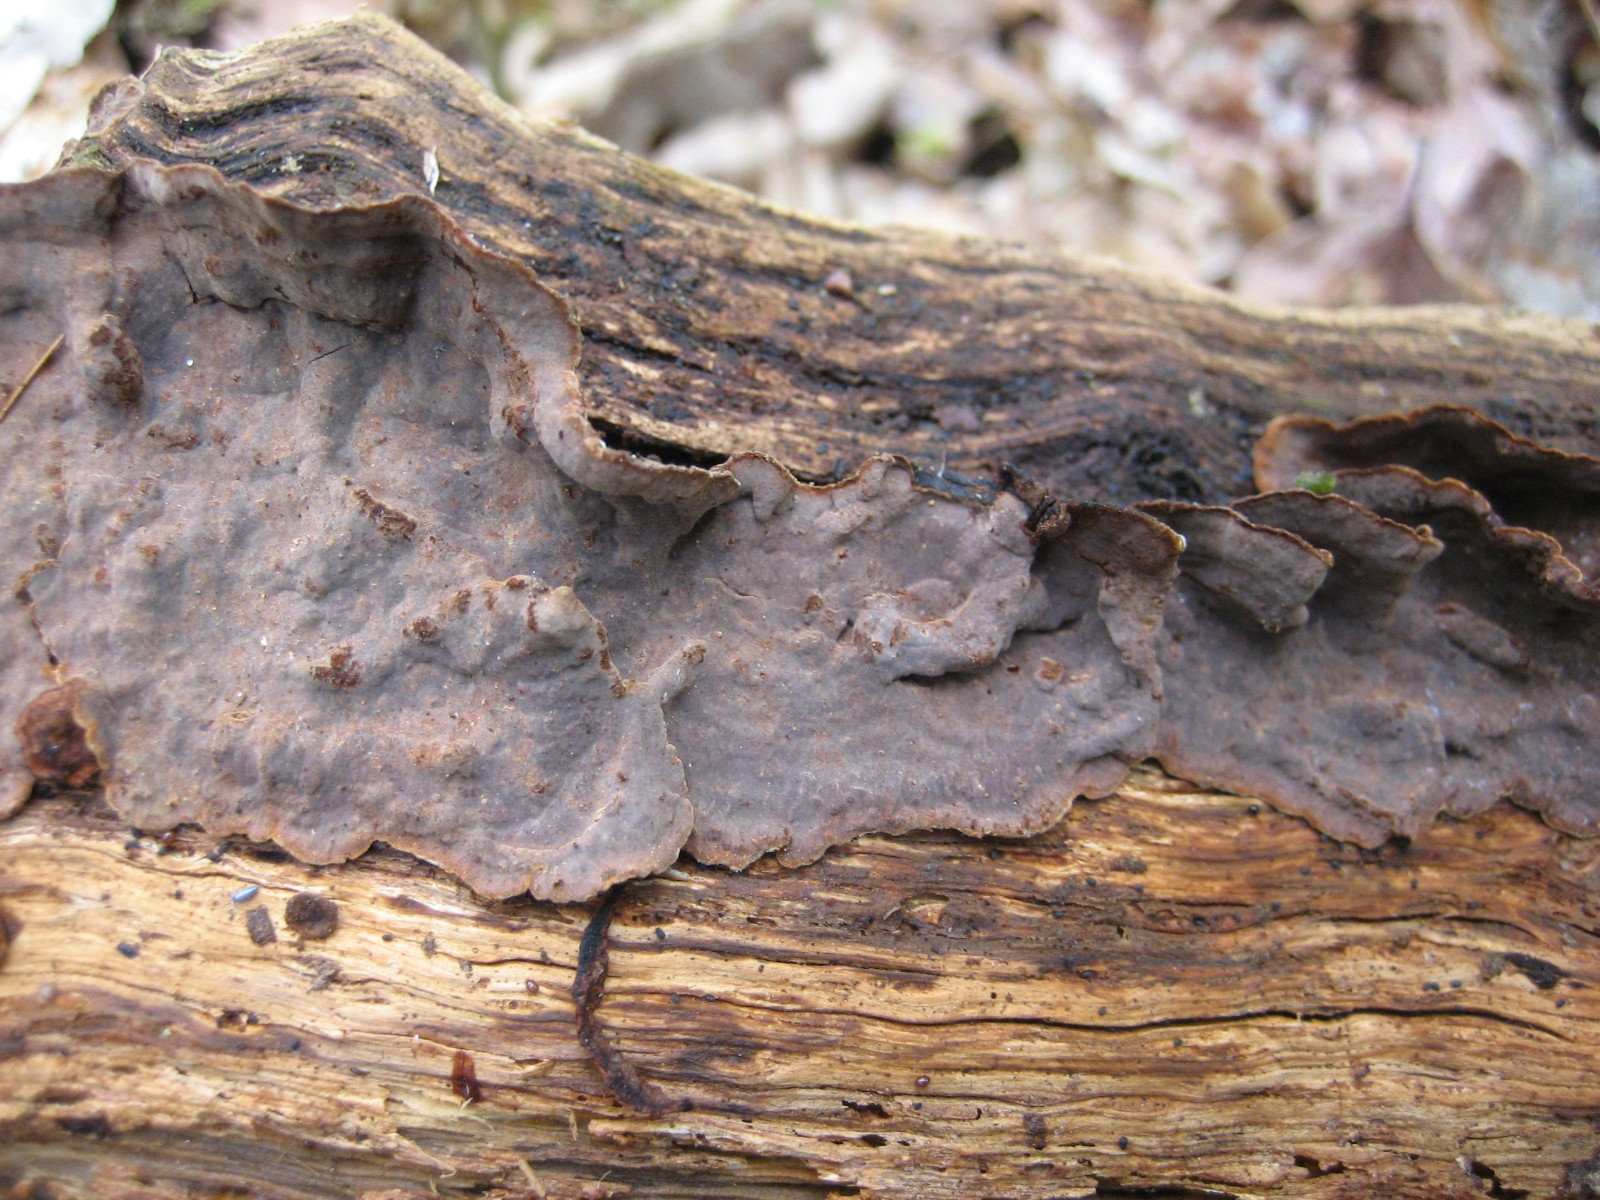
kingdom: Fungi
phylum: Basidiomycota
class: Agaricomycetes
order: Hymenochaetales
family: Hymenochaetaceae
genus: Hymenochaete
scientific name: Hymenochaete rubiginosa
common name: stiv ruslædersvamp
